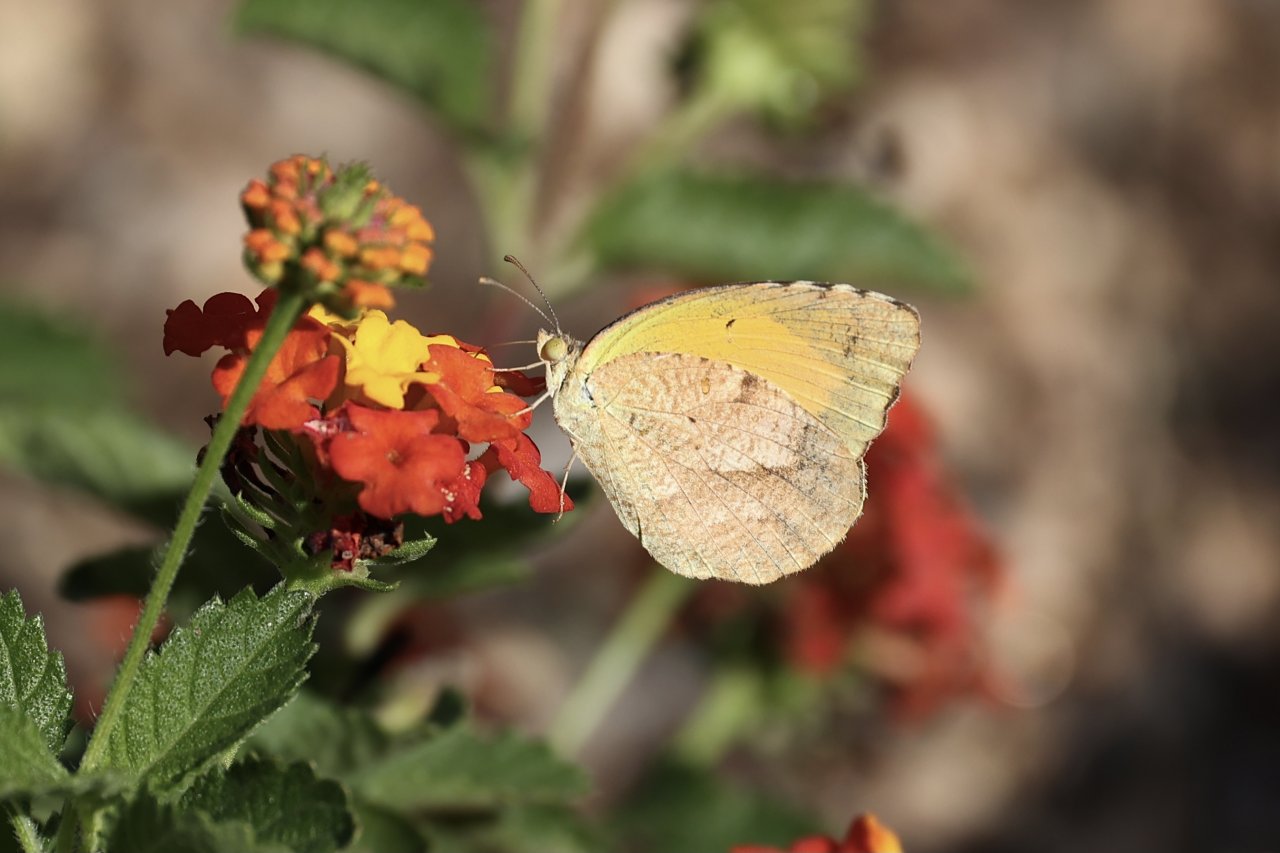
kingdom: Animalia
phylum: Arthropoda
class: Insecta
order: Lepidoptera
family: Pieridae
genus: Abaeis
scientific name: Abaeis nicippe
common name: Sleepy Orange
